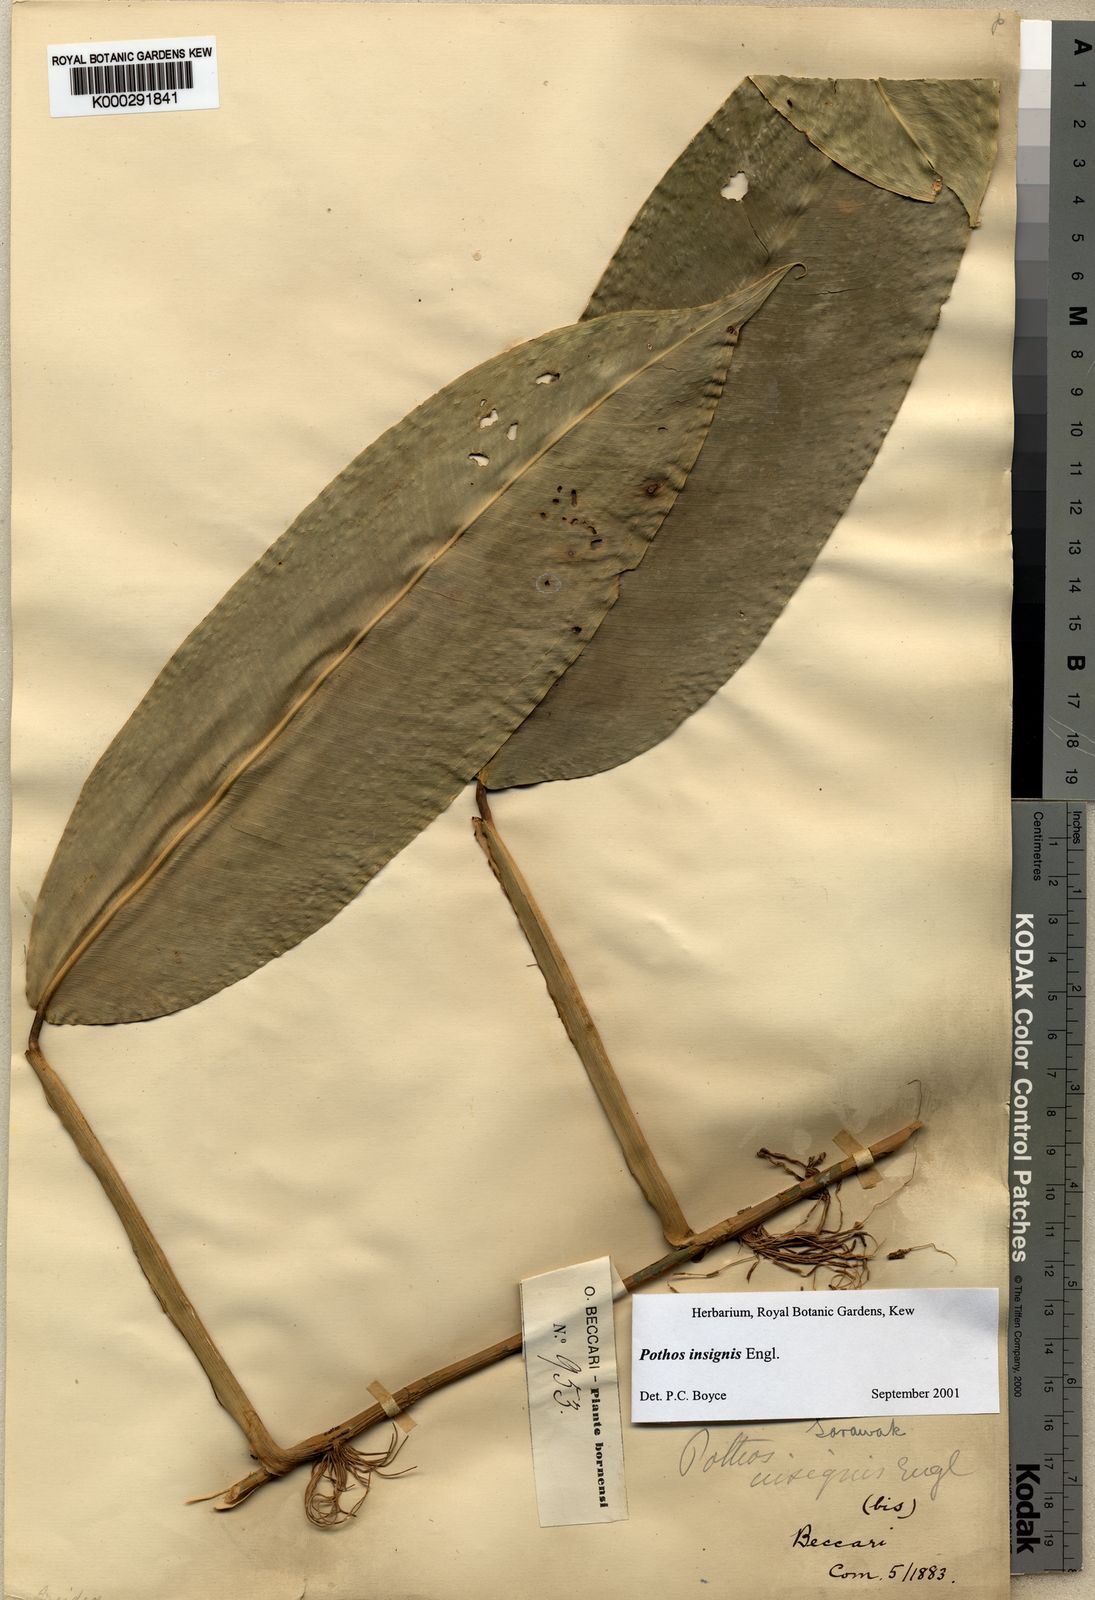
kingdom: Plantae
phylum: Tracheophyta
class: Liliopsida
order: Alismatales
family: Araceae
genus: Pothos
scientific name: Pothos insignis
